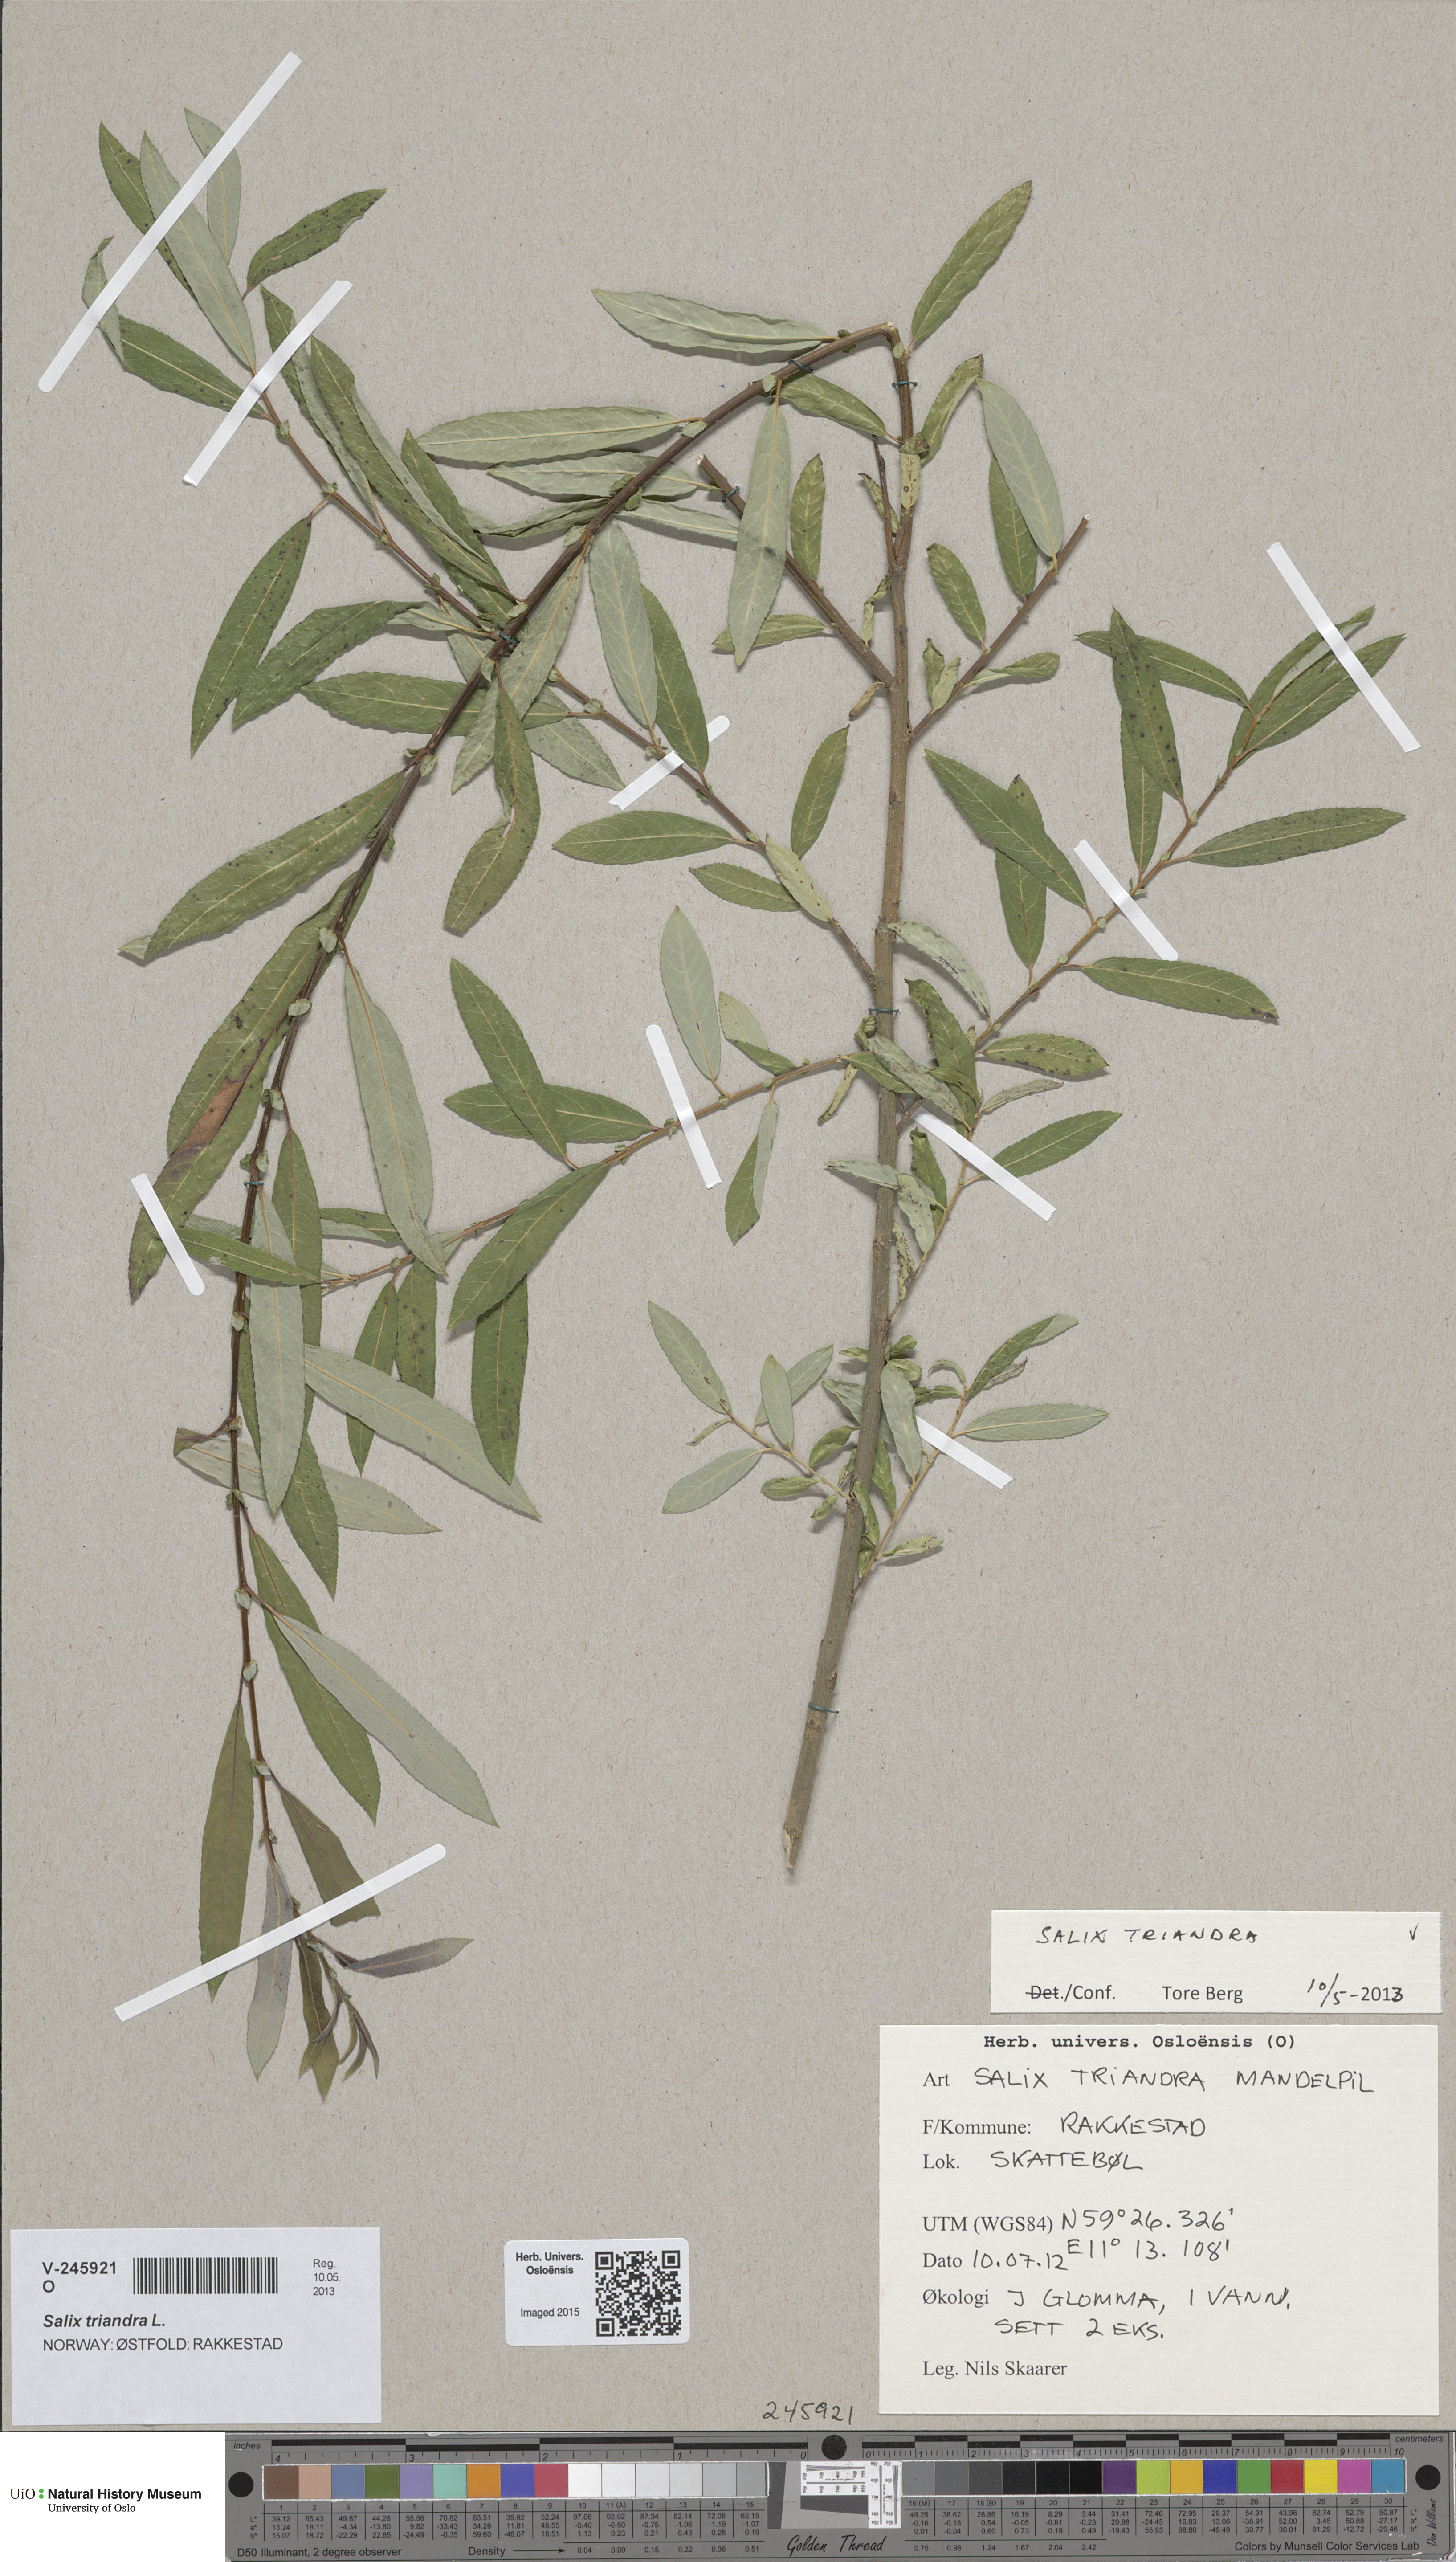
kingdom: Plantae
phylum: Tracheophyta
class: Magnoliopsida
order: Malpighiales
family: Salicaceae
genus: Salix
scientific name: Salix triandra
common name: Almond willow
